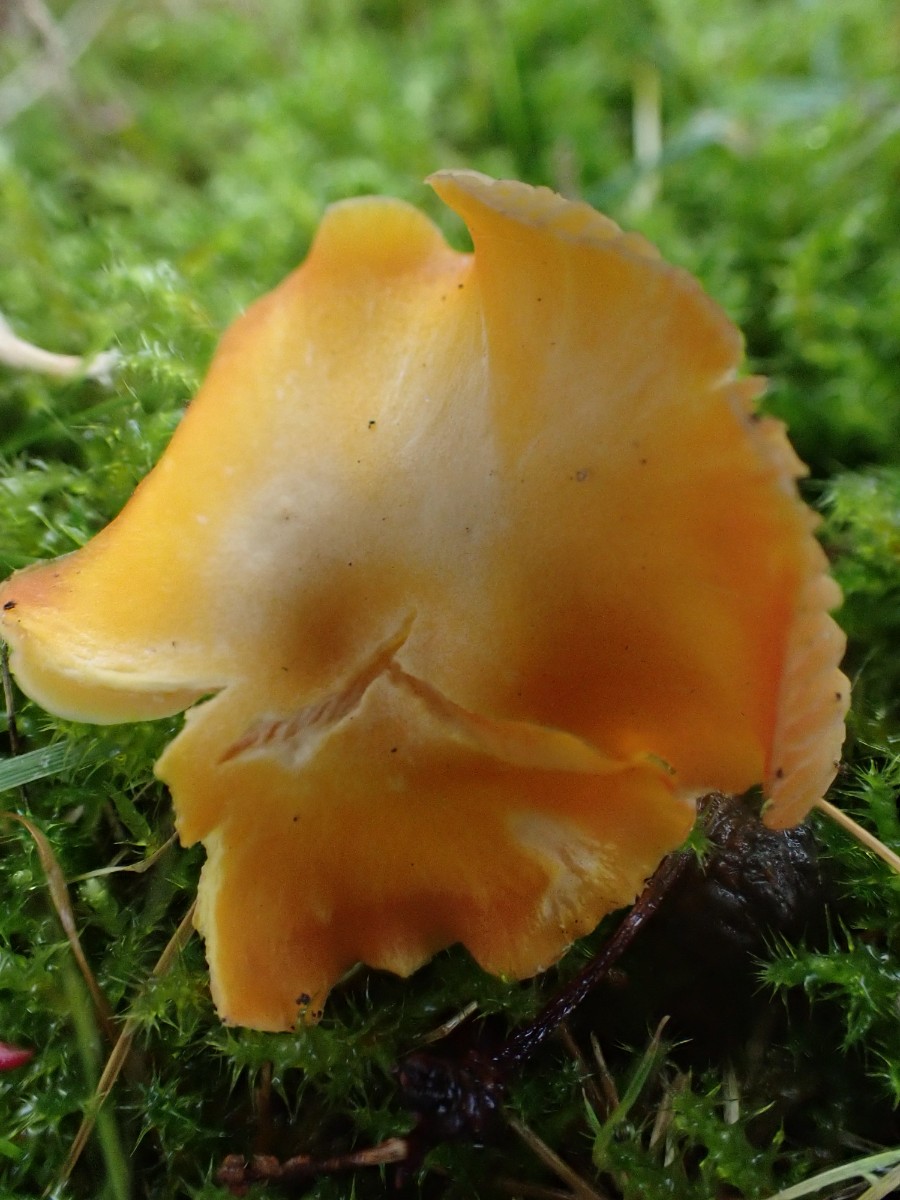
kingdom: Fungi
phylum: Basidiomycota
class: Agaricomycetes
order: Agaricales
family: Hygrophoraceae
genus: Hygrocybe
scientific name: Hygrocybe ceracea
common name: voksgul vokshat
